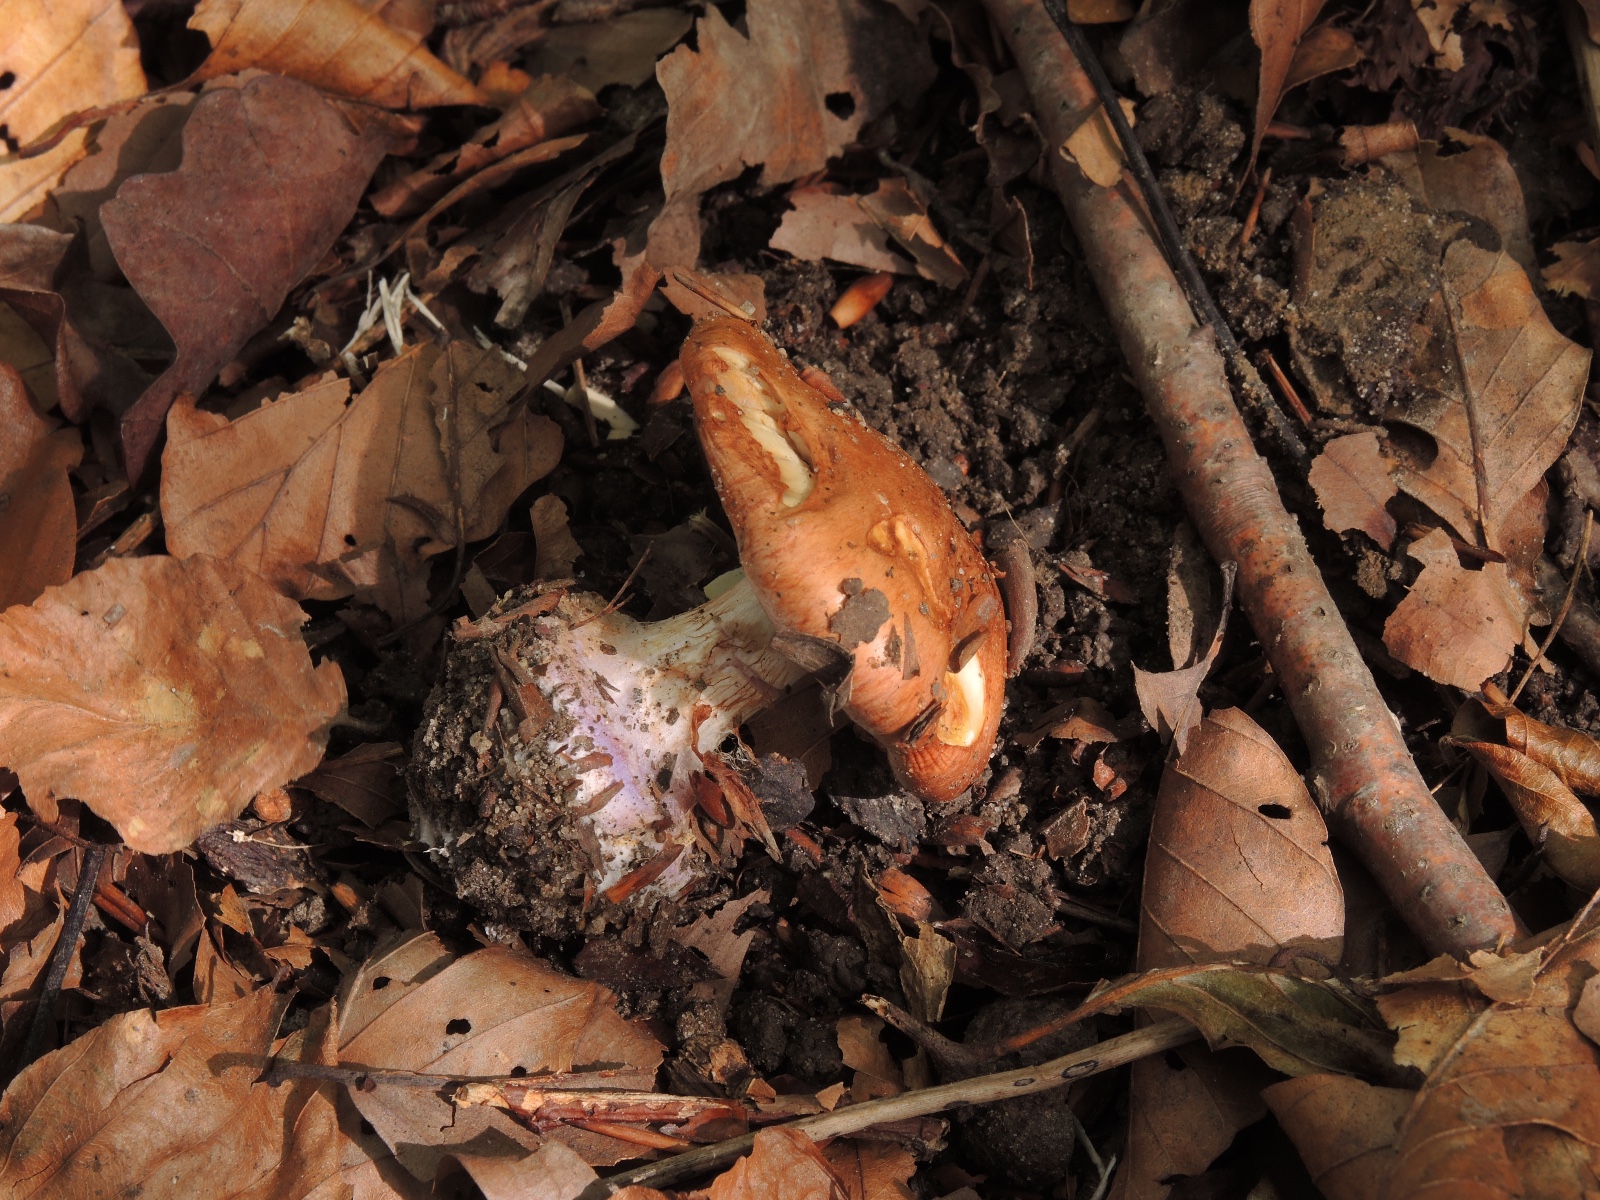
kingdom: Fungi
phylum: Basidiomycota
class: Agaricomycetes
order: Agaricales
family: Cortinariaceae
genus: Calonarius
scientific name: Calonarius arcuatorum
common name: violetflaget slørhat
